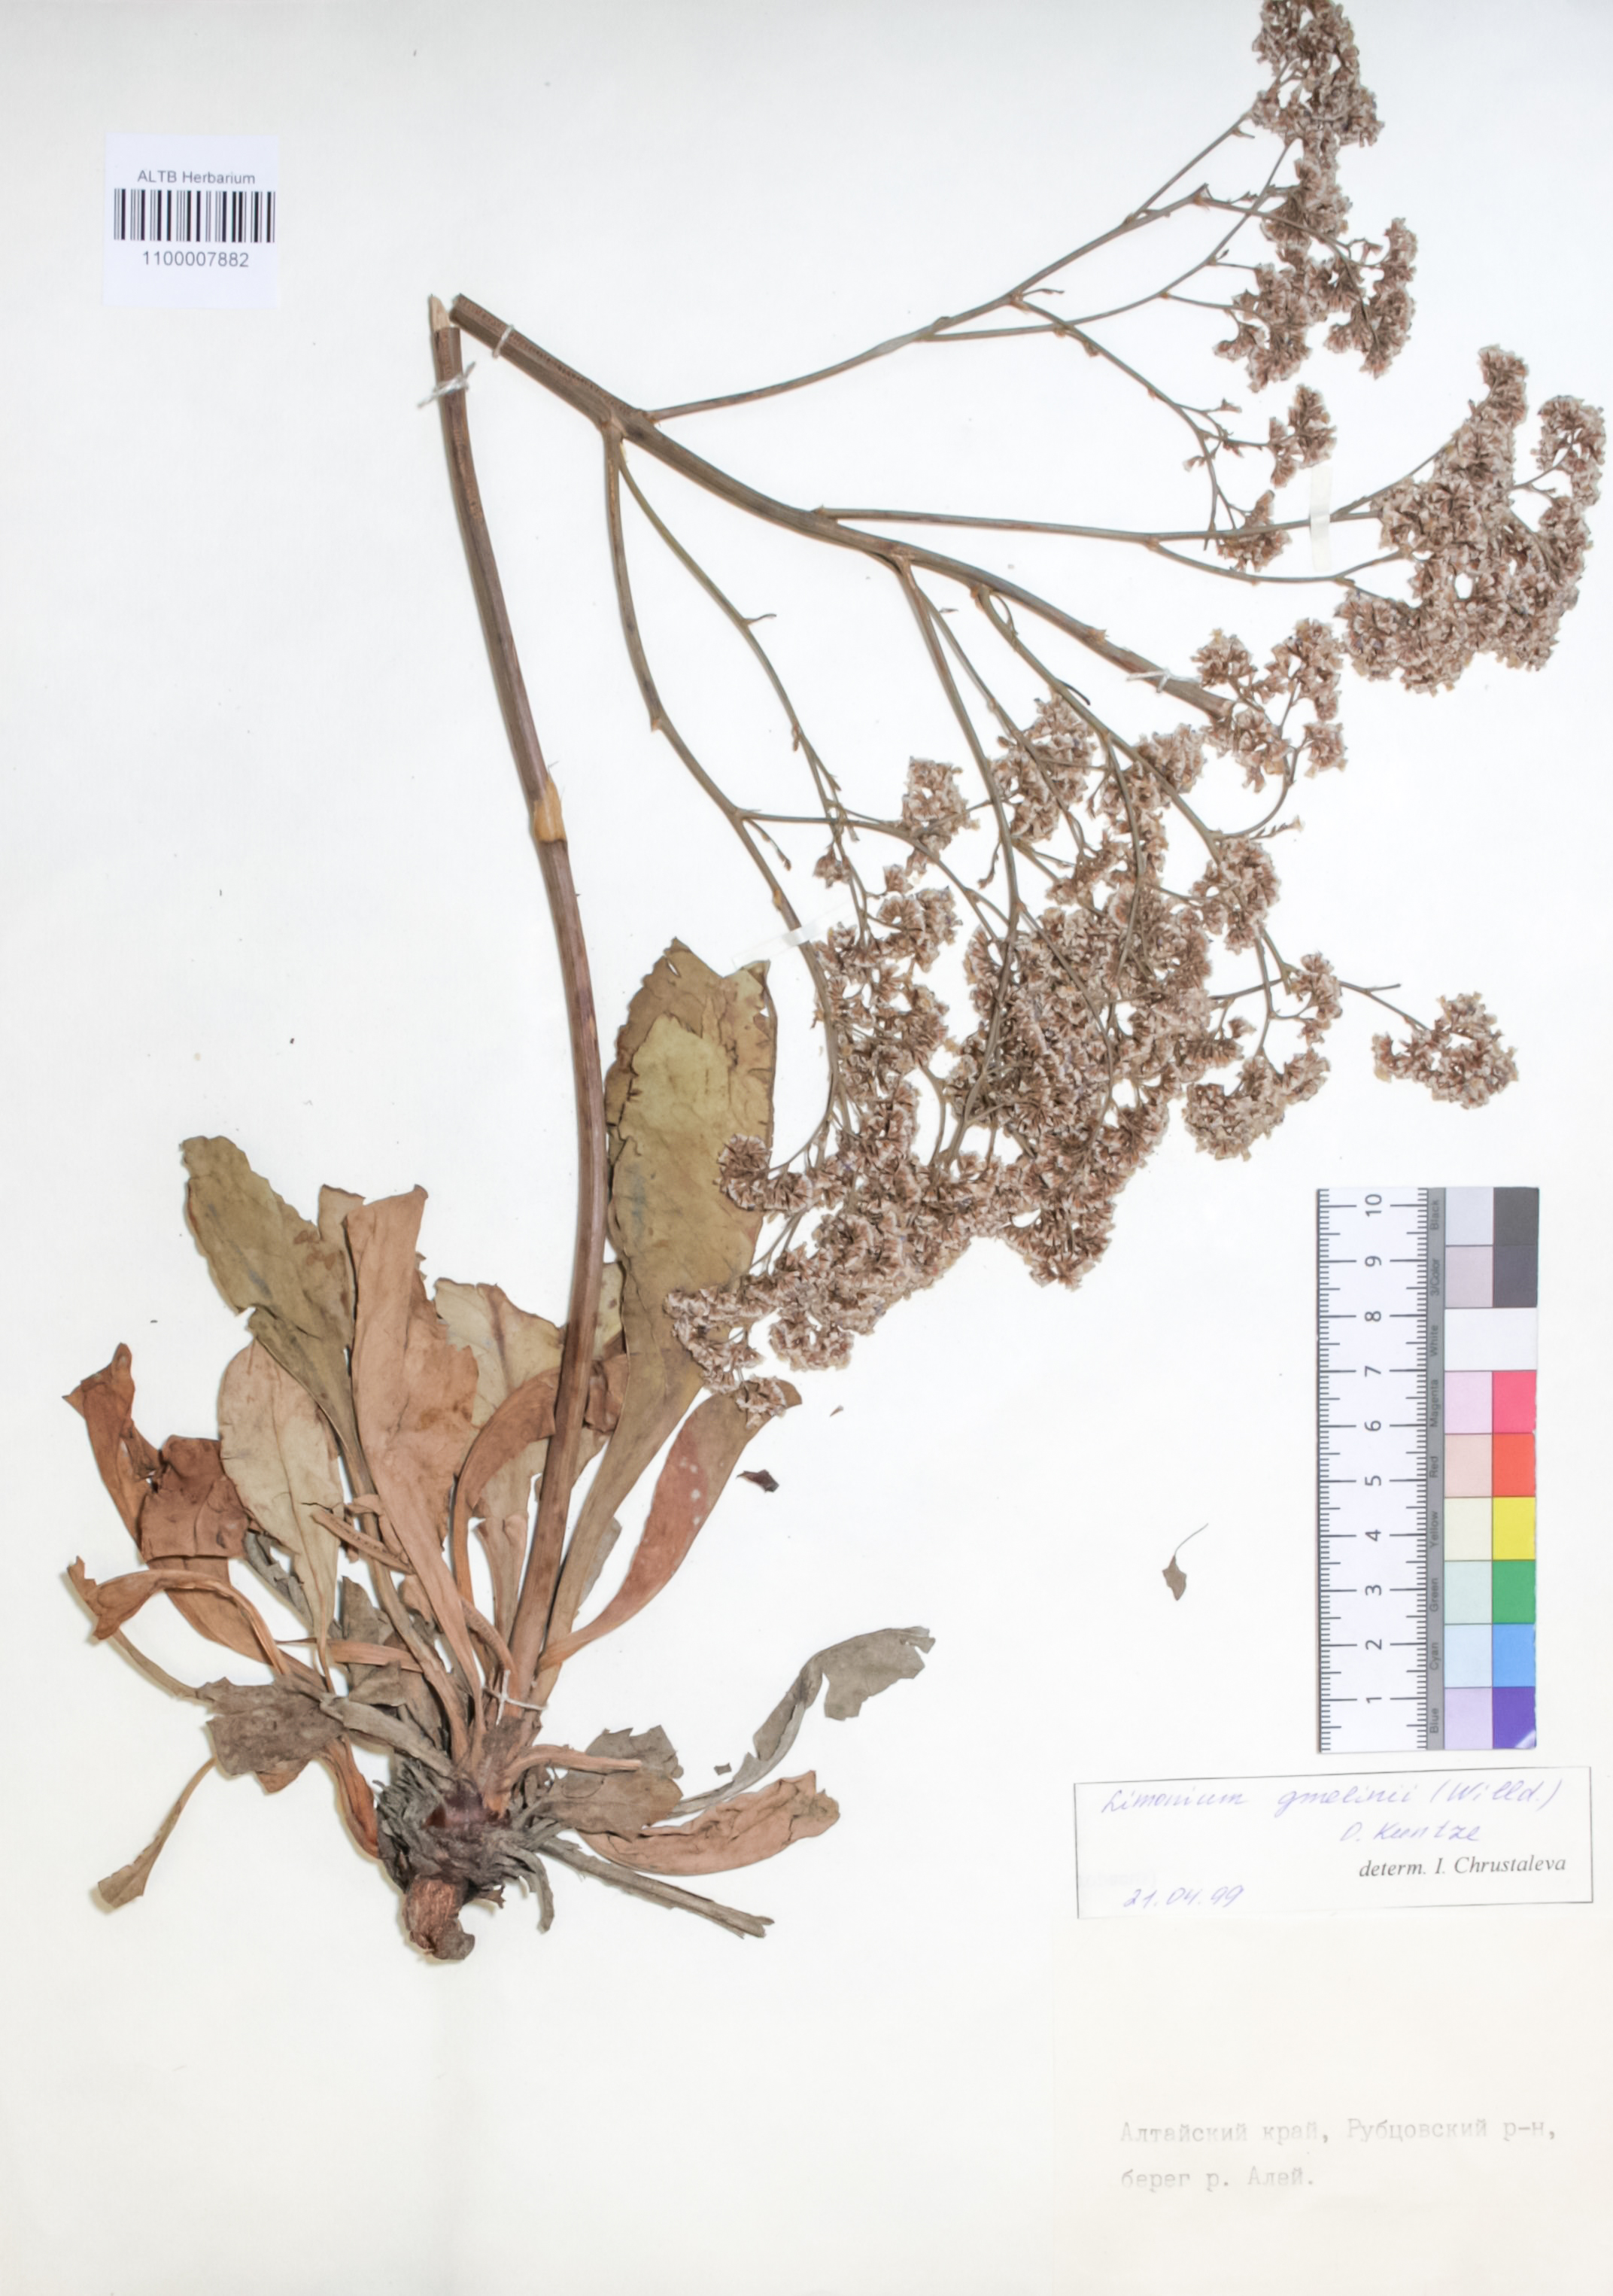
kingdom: Plantae
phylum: Tracheophyta
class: Magnoliopsida
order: Caryophyllales
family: Plumbaginaceae
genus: Limonium
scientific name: Limonium gmelini
